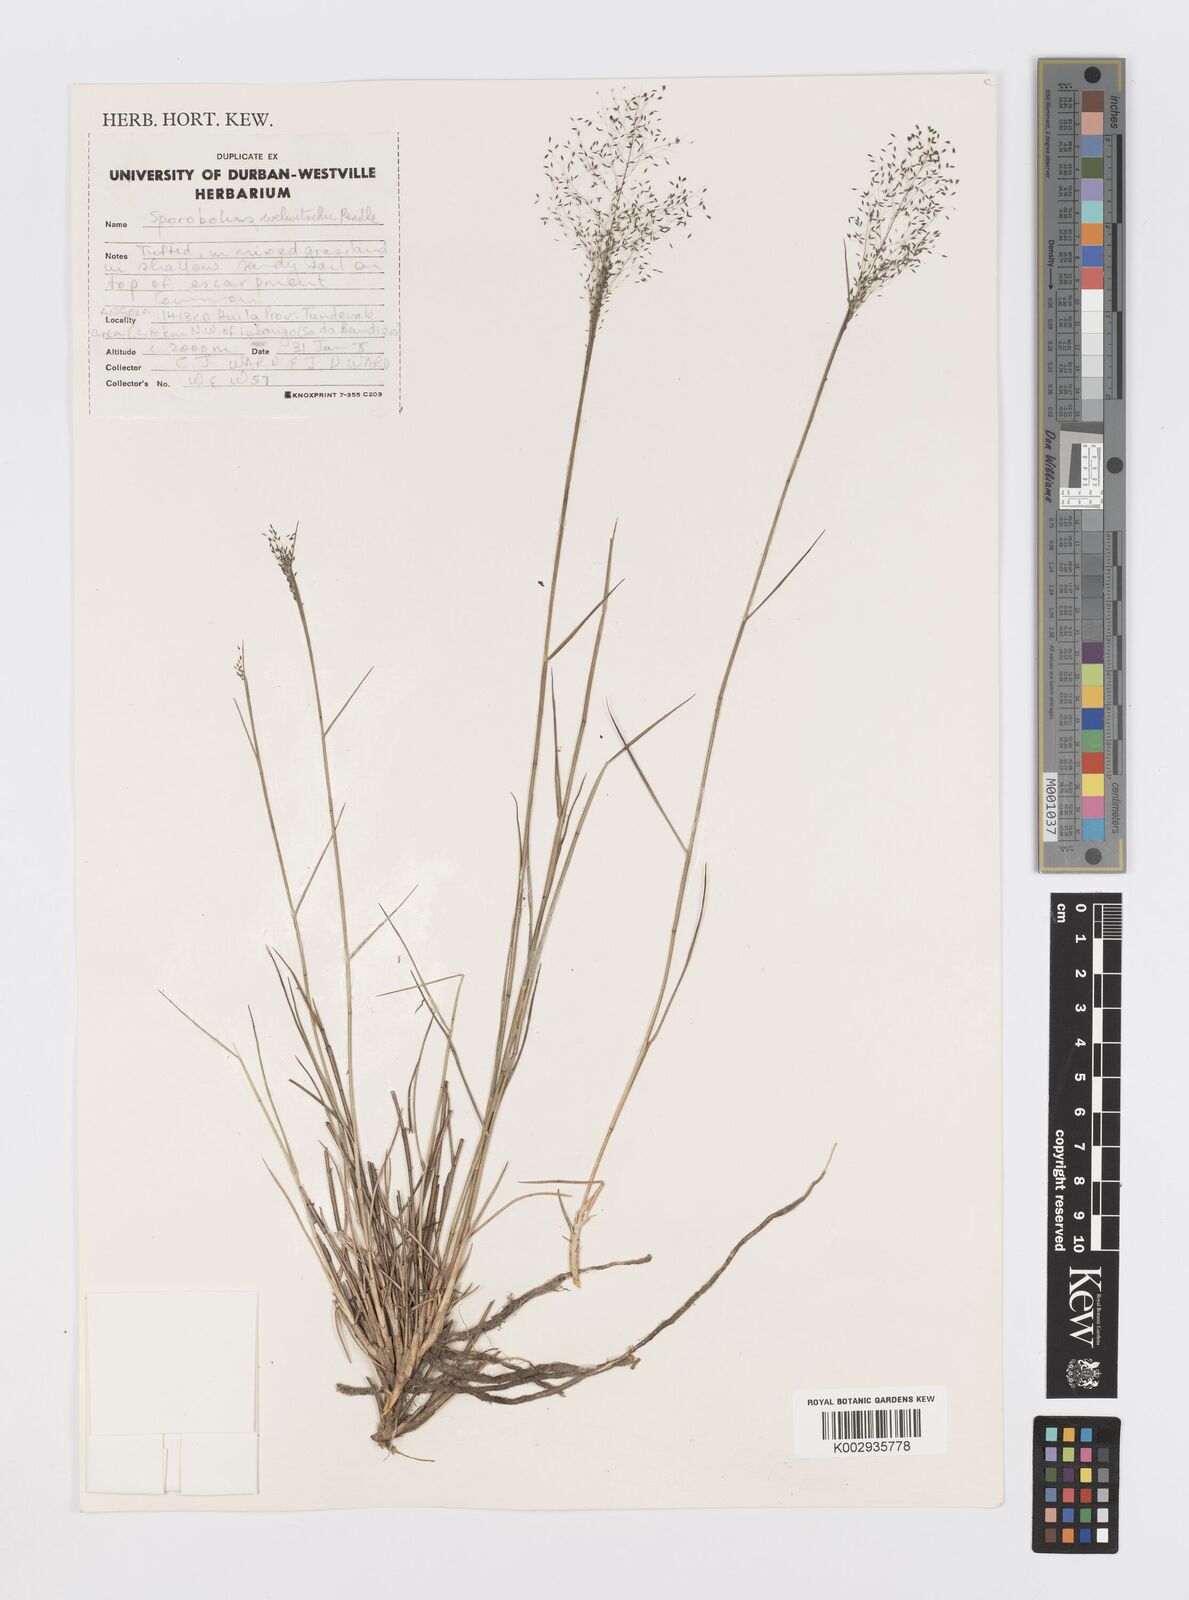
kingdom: Plantae
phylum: Tracheophyta
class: Liliopsida
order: Poales
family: Poaceae
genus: Sporobolus
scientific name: Sporobolus welwitschii
